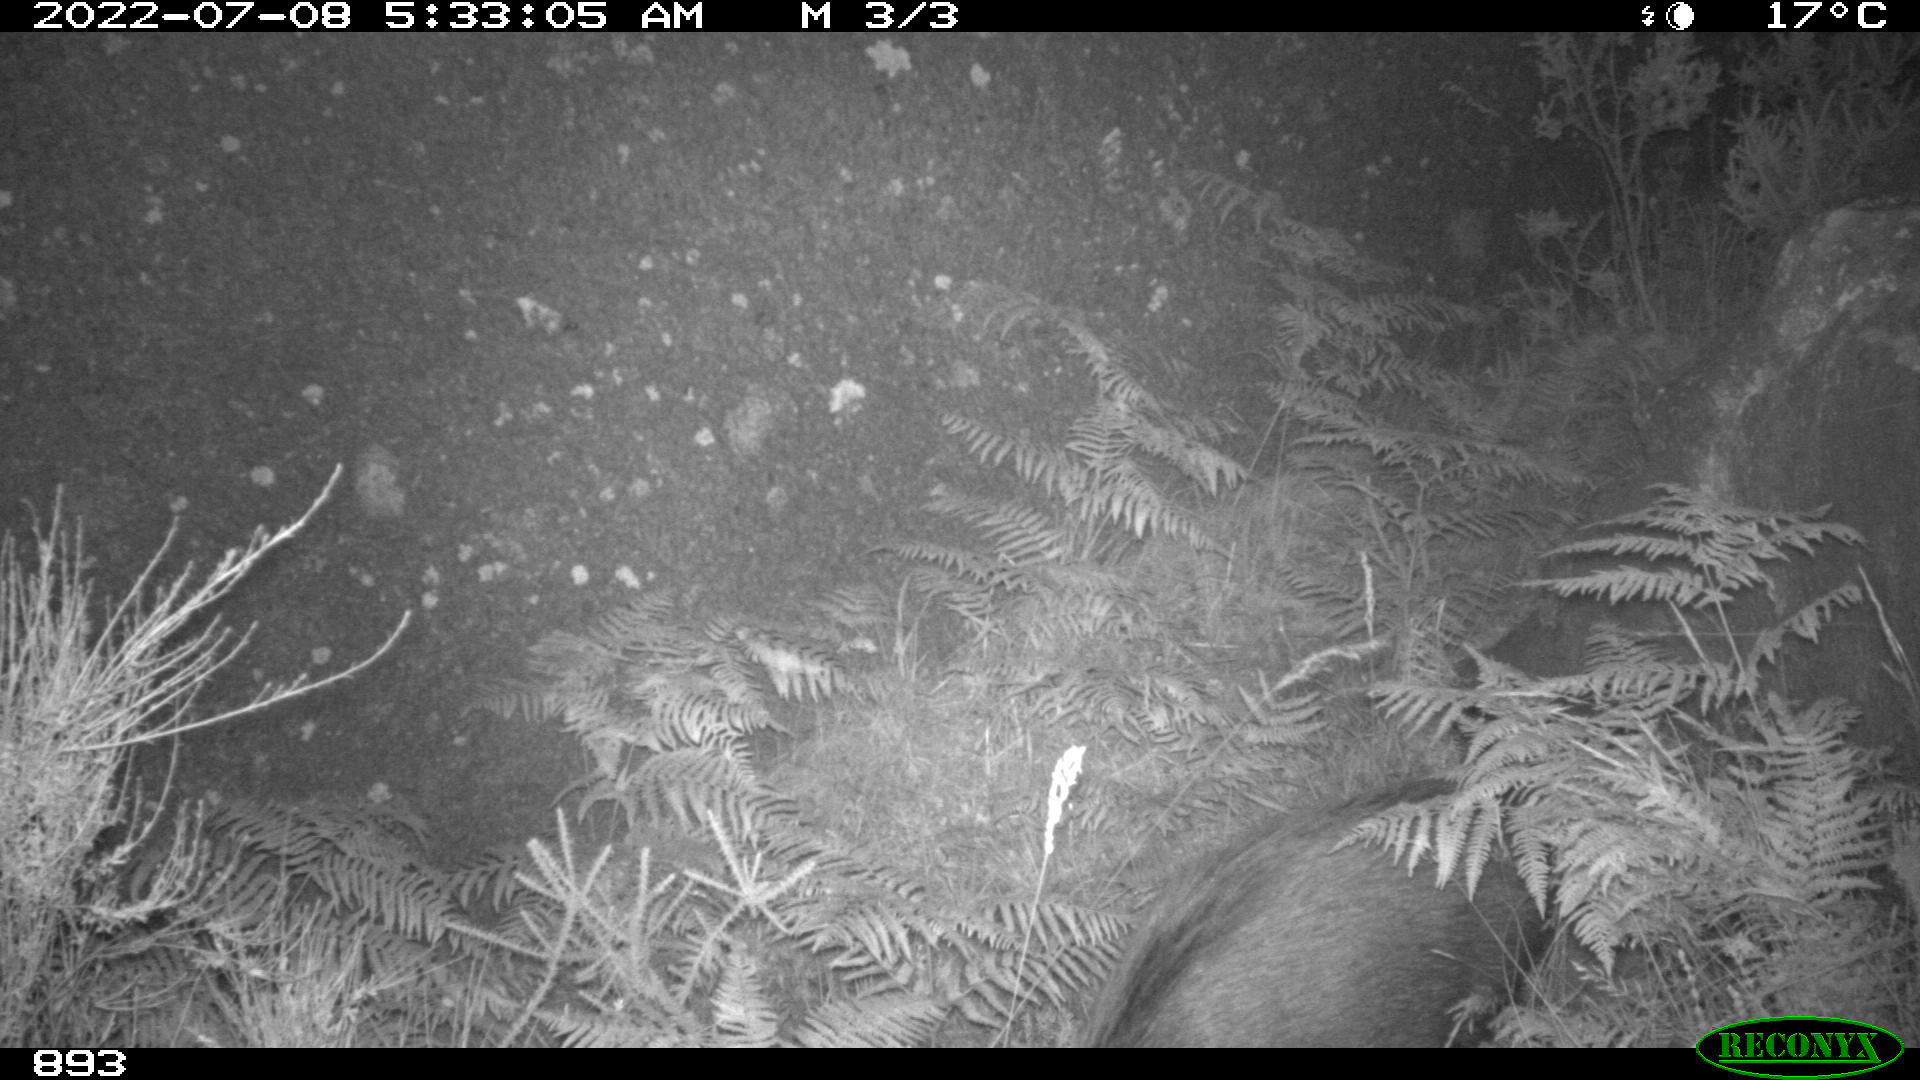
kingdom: Animalia
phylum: Chordata
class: Mammalia
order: Artiodactyla
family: Suidae
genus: Sus
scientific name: Sus scrofa
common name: Wild boar
